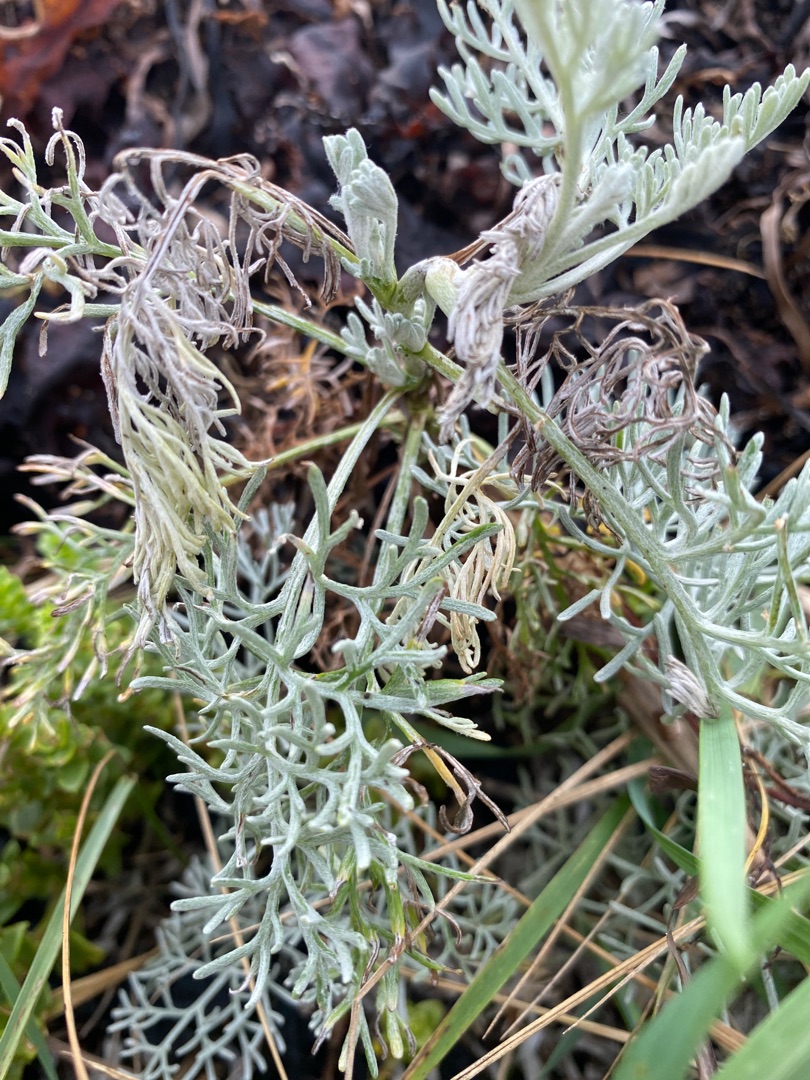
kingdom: Plantae
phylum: Tracheophyta
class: Magnoliopsida
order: Asterales
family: Asteraceae
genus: Artemisia
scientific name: Artemisia maritima
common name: Strandmalurt
